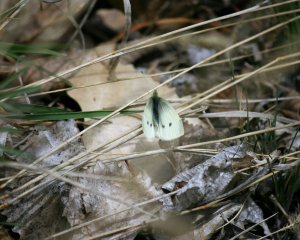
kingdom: Animalia
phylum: Arthropoda
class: Insecta
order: Lepidoptera
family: Pieridae
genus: Pieris
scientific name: Pieris rapae
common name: Cabbage White
